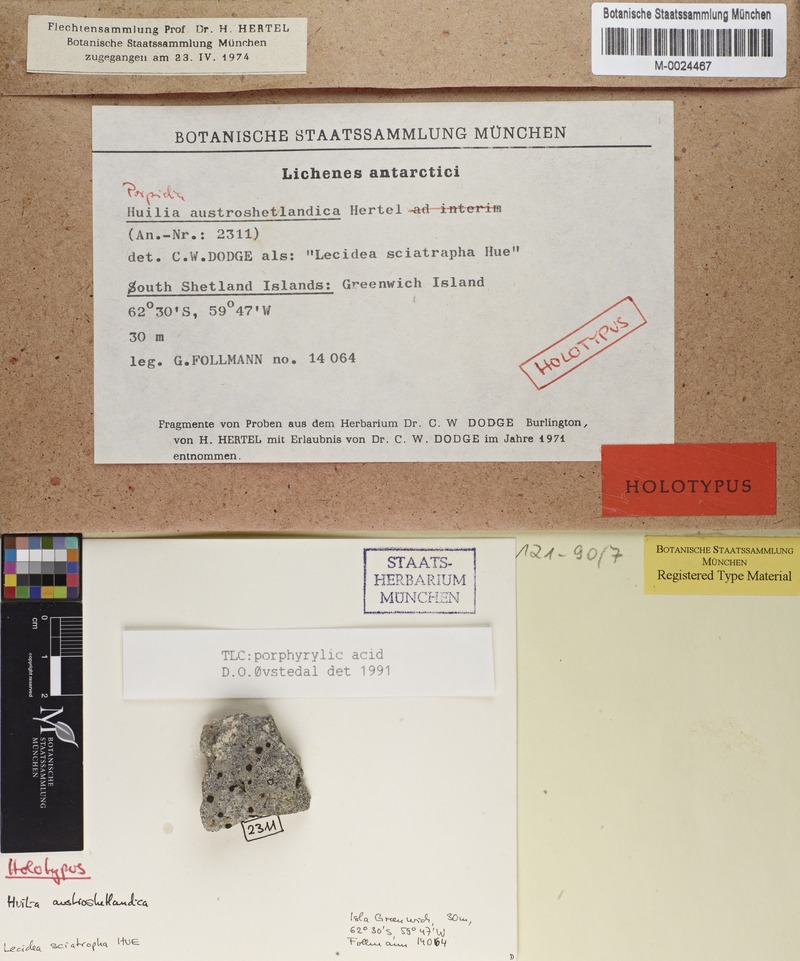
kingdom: Fungi
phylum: Ascomycota
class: Lecanoromycetes
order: Lecideales
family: Lecideaceae
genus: Porpidia
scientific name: Porpidia austroshetlandica
